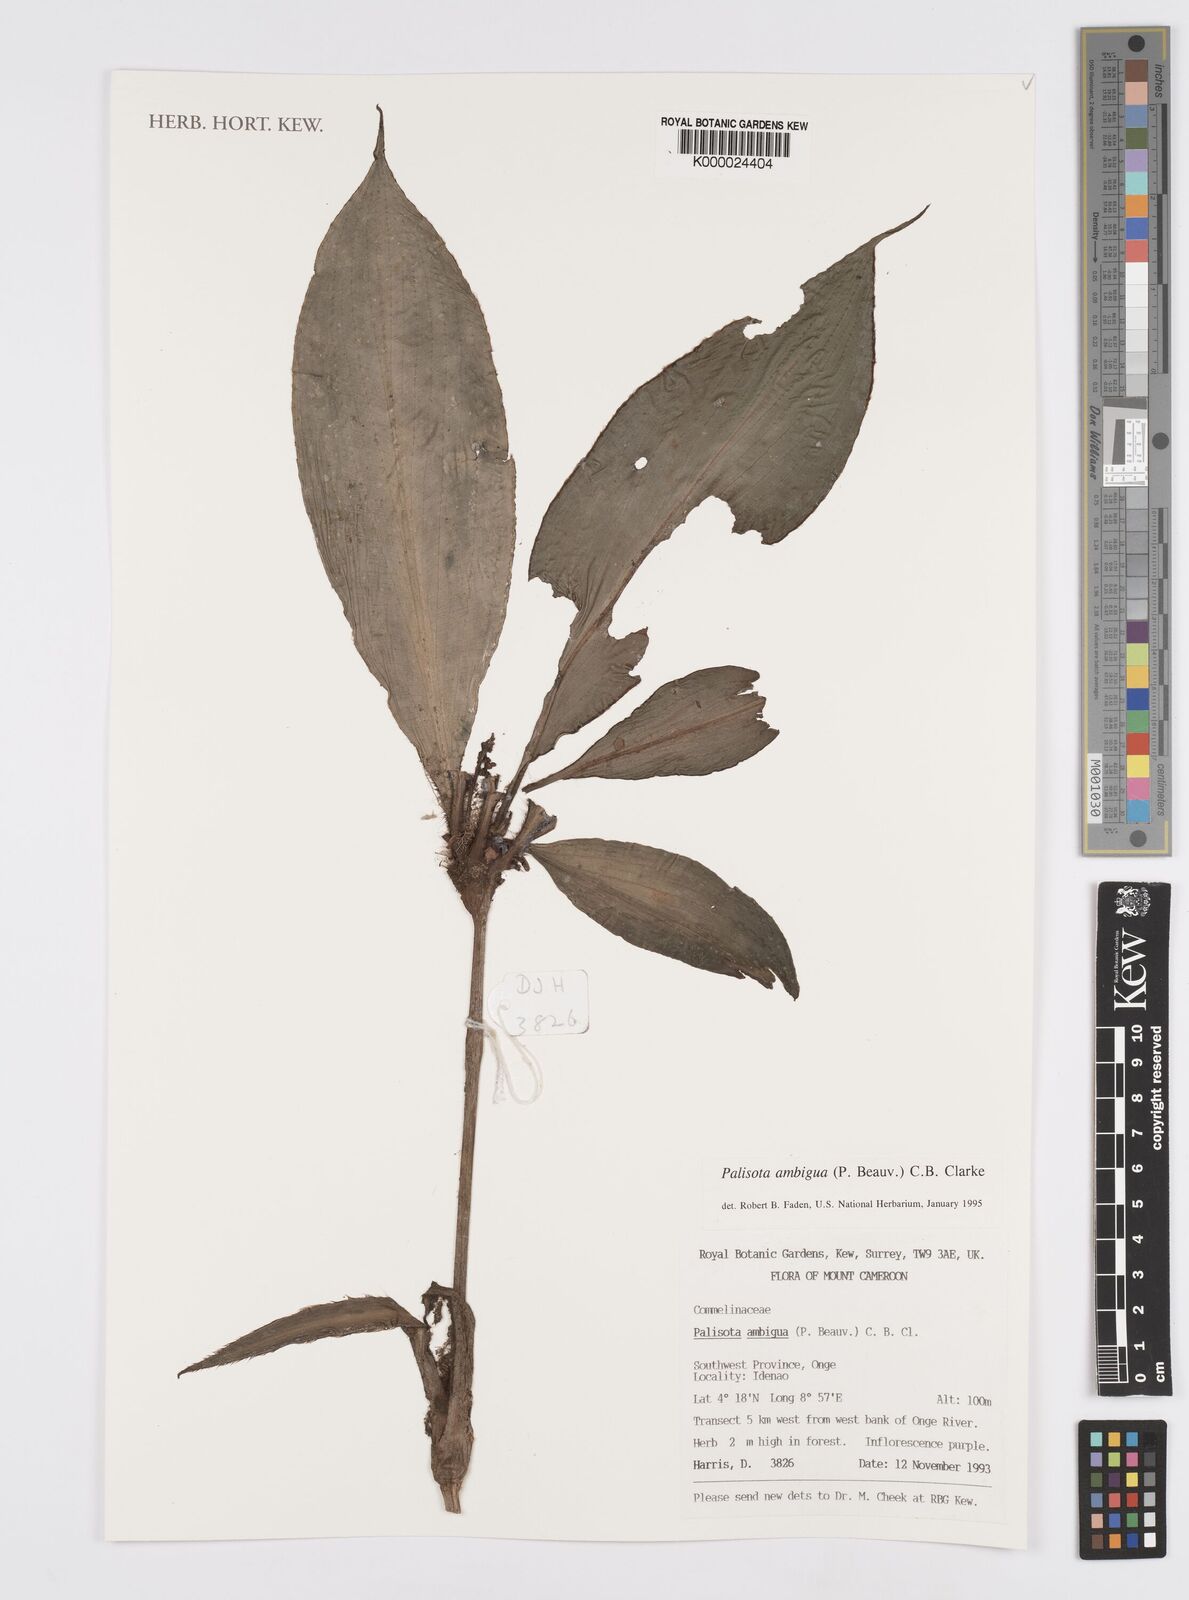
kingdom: Plantae
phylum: Tracheophyta
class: Liliopsida
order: Commelinales
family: Commelinaceae
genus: Palisota
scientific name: Palisota ambigua
